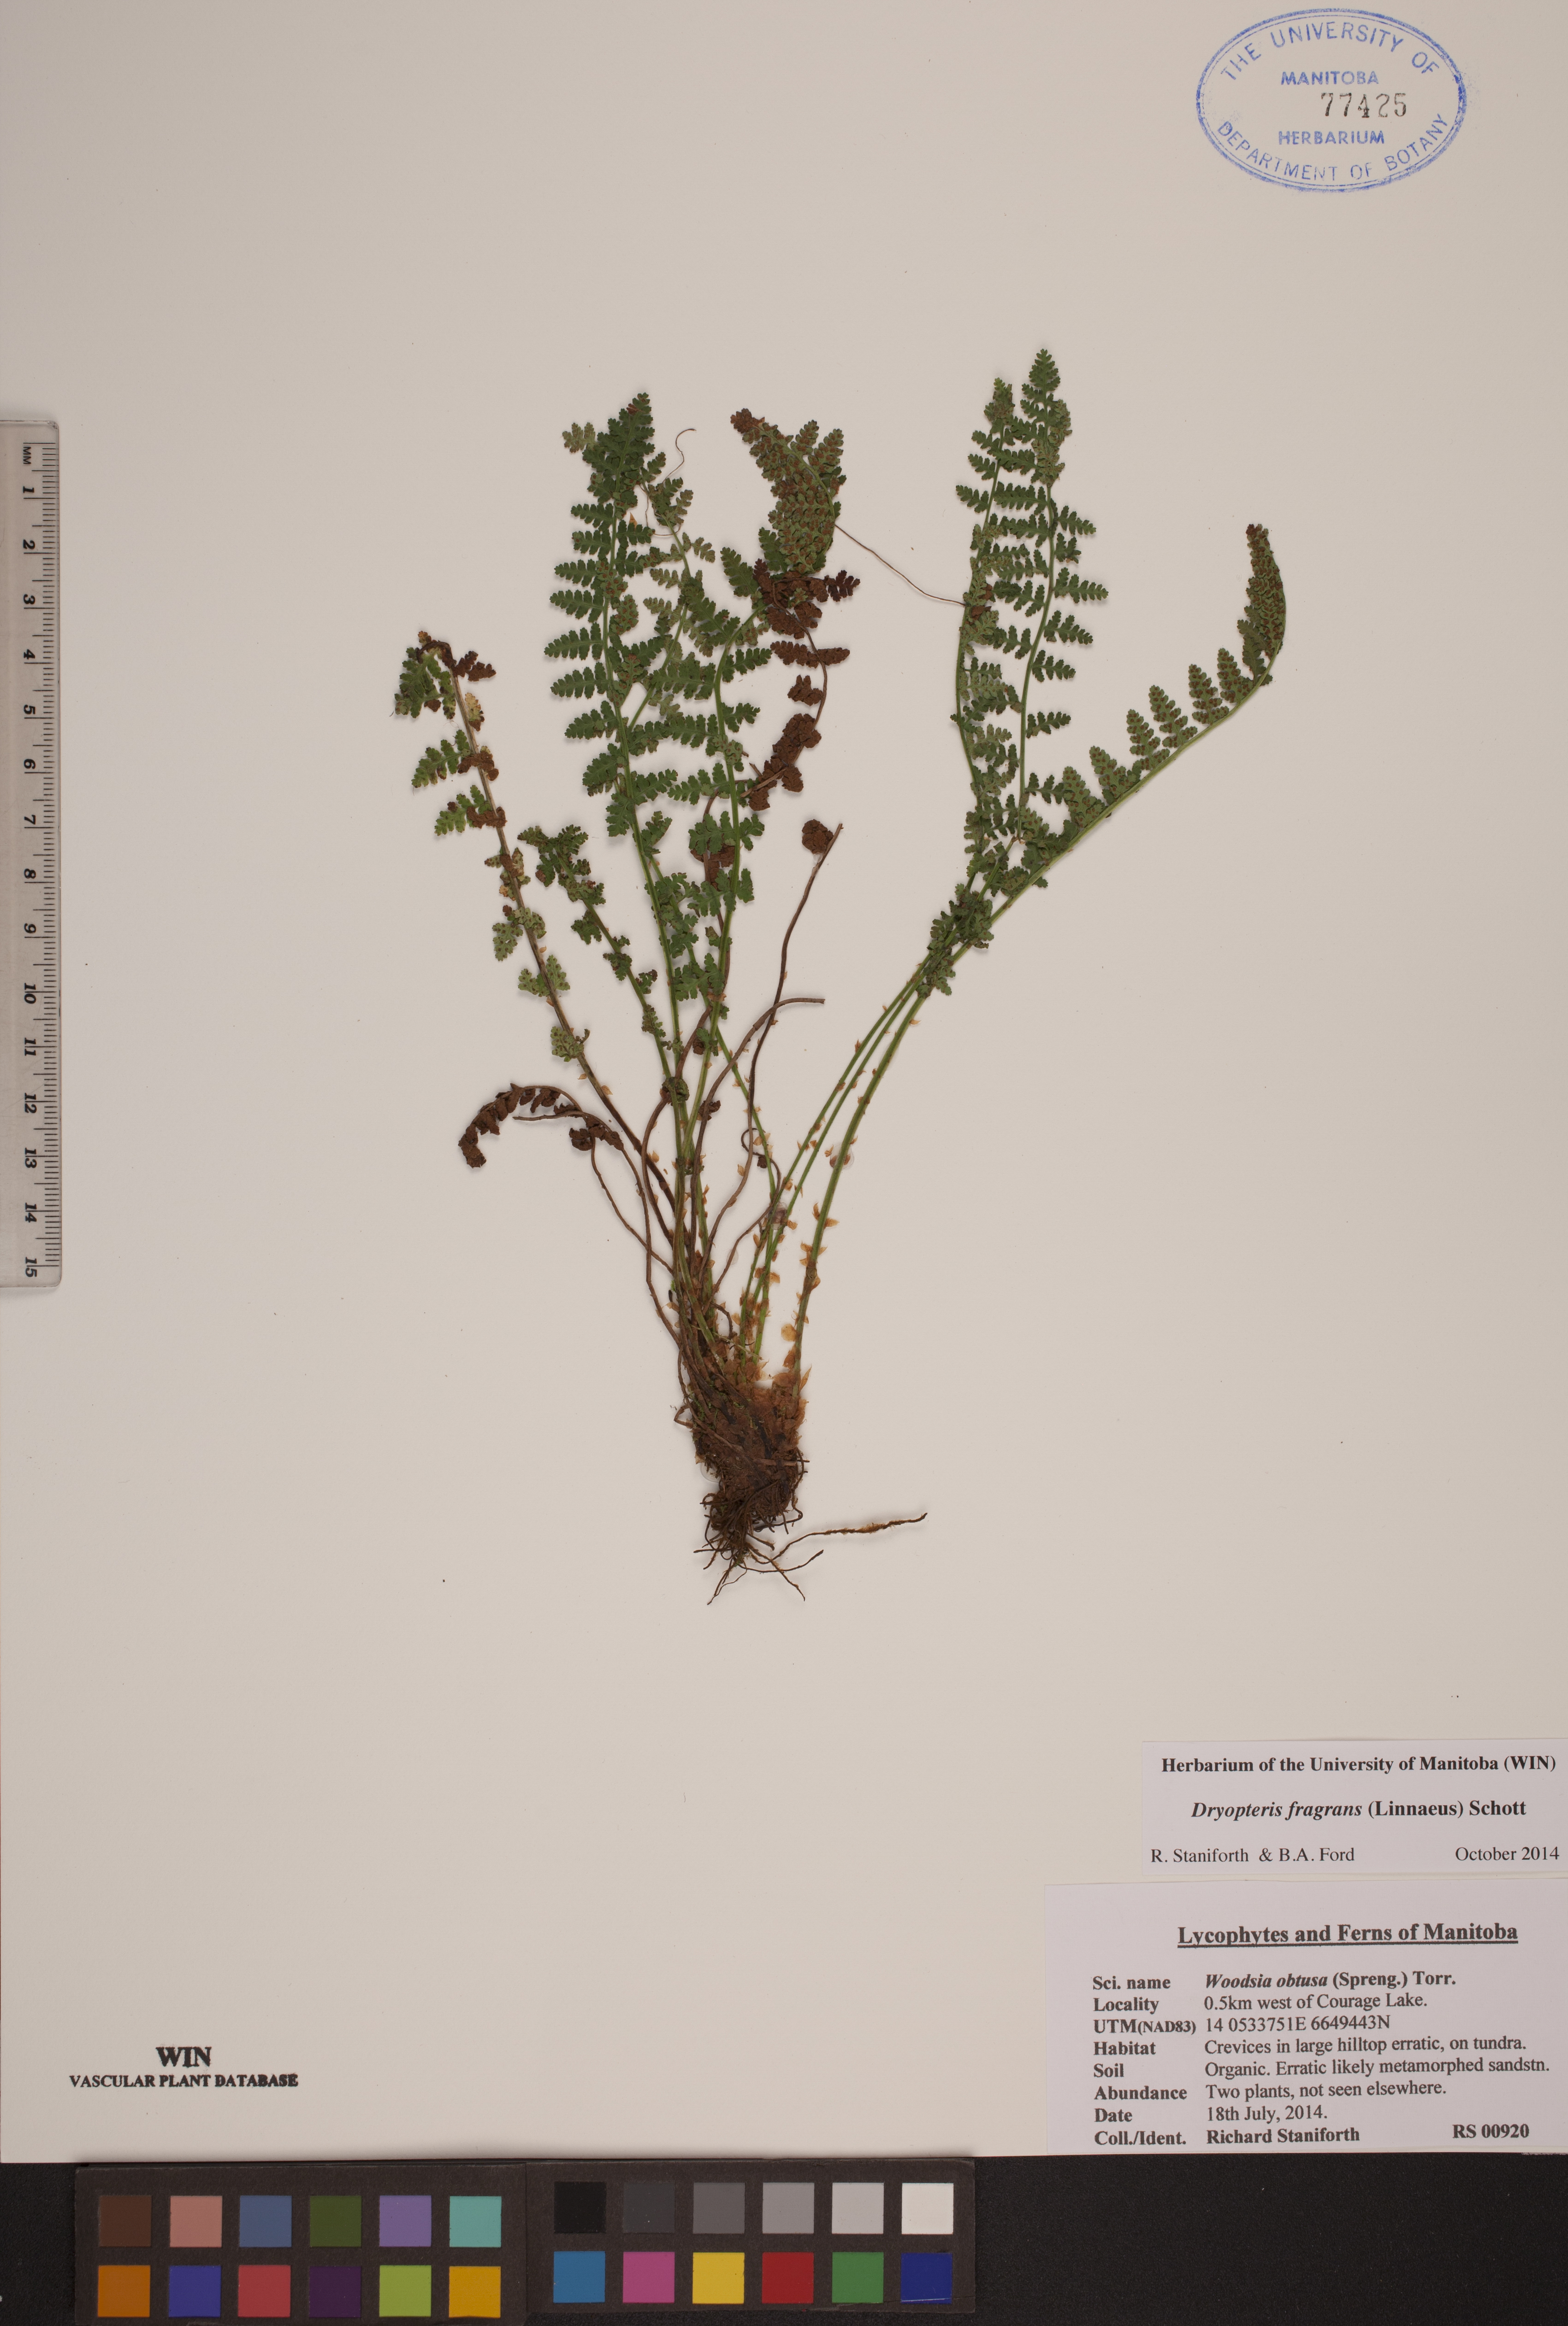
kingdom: Plantae
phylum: Tracheophyta
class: Polypodiopsida
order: Polypodiales
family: Dryopteridaceae
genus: Dryopteris
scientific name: Dryopteris fragrans
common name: Fragrant wood fern
